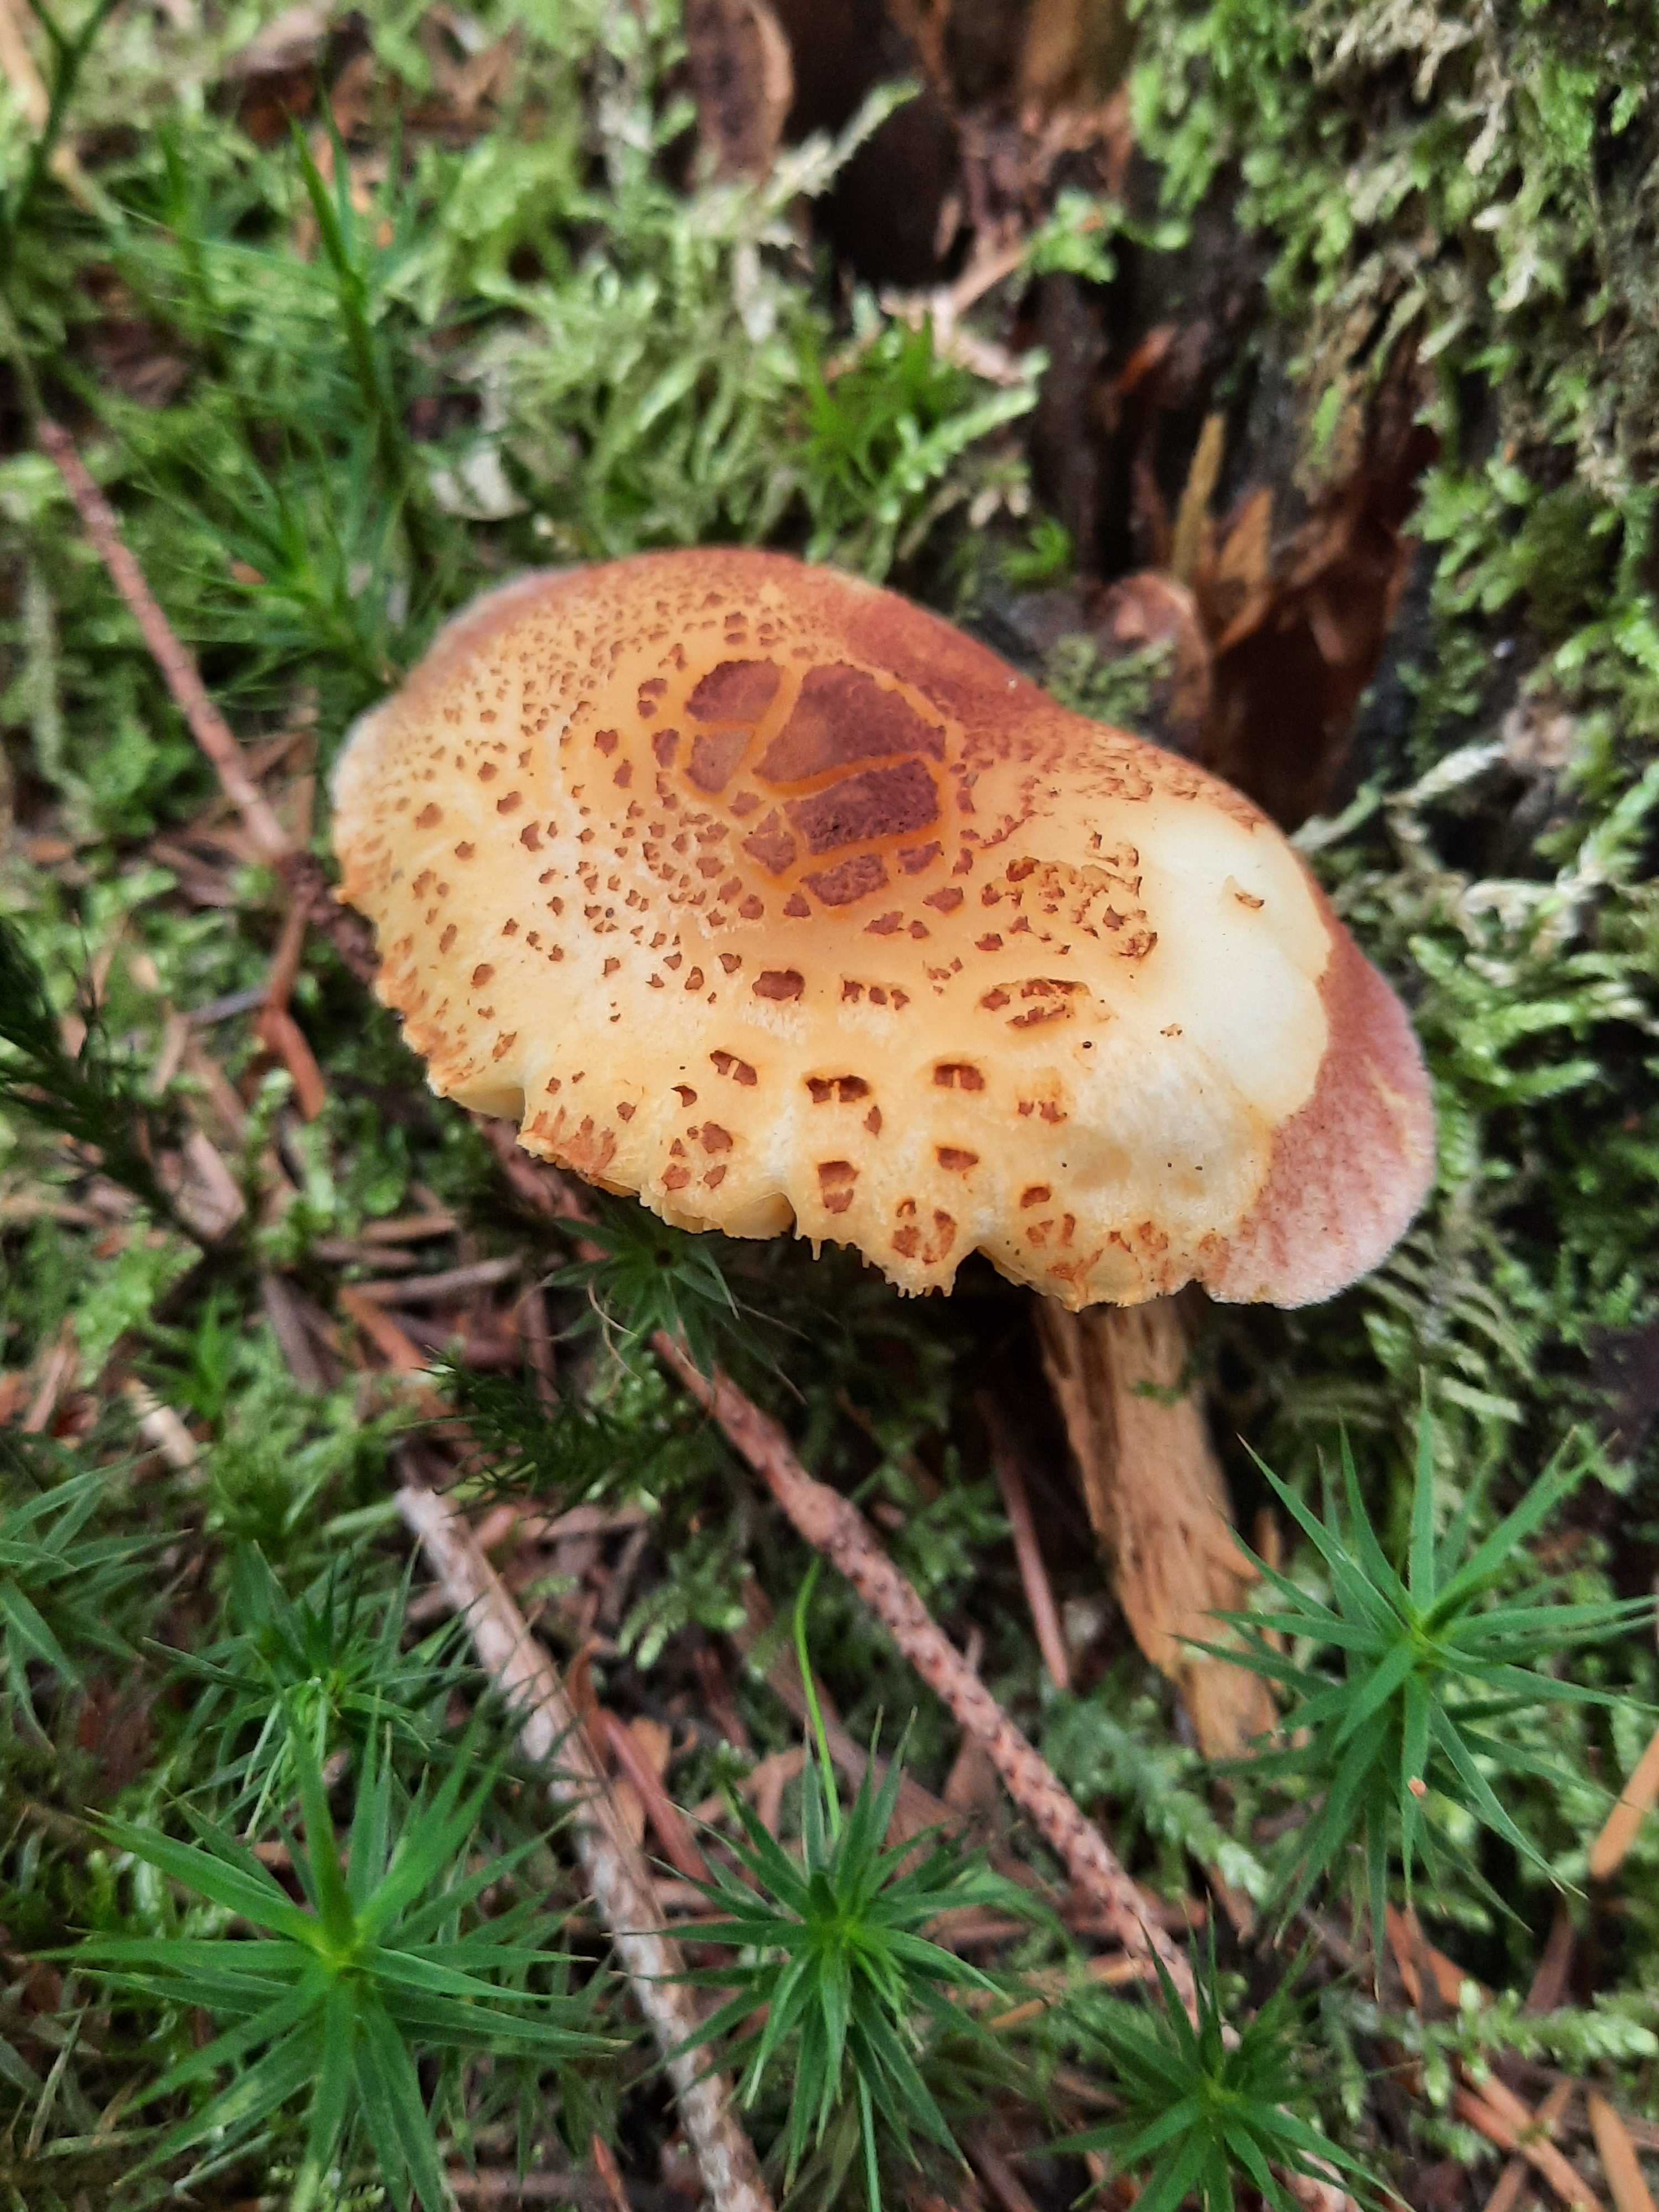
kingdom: Fungi
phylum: Basidiomycota
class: Agaricomycetes
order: Agaricales
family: Tricholomataceae
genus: Tricholomopsis
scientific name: Tricholomopsis rutilans
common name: purpur-væbnerhat
